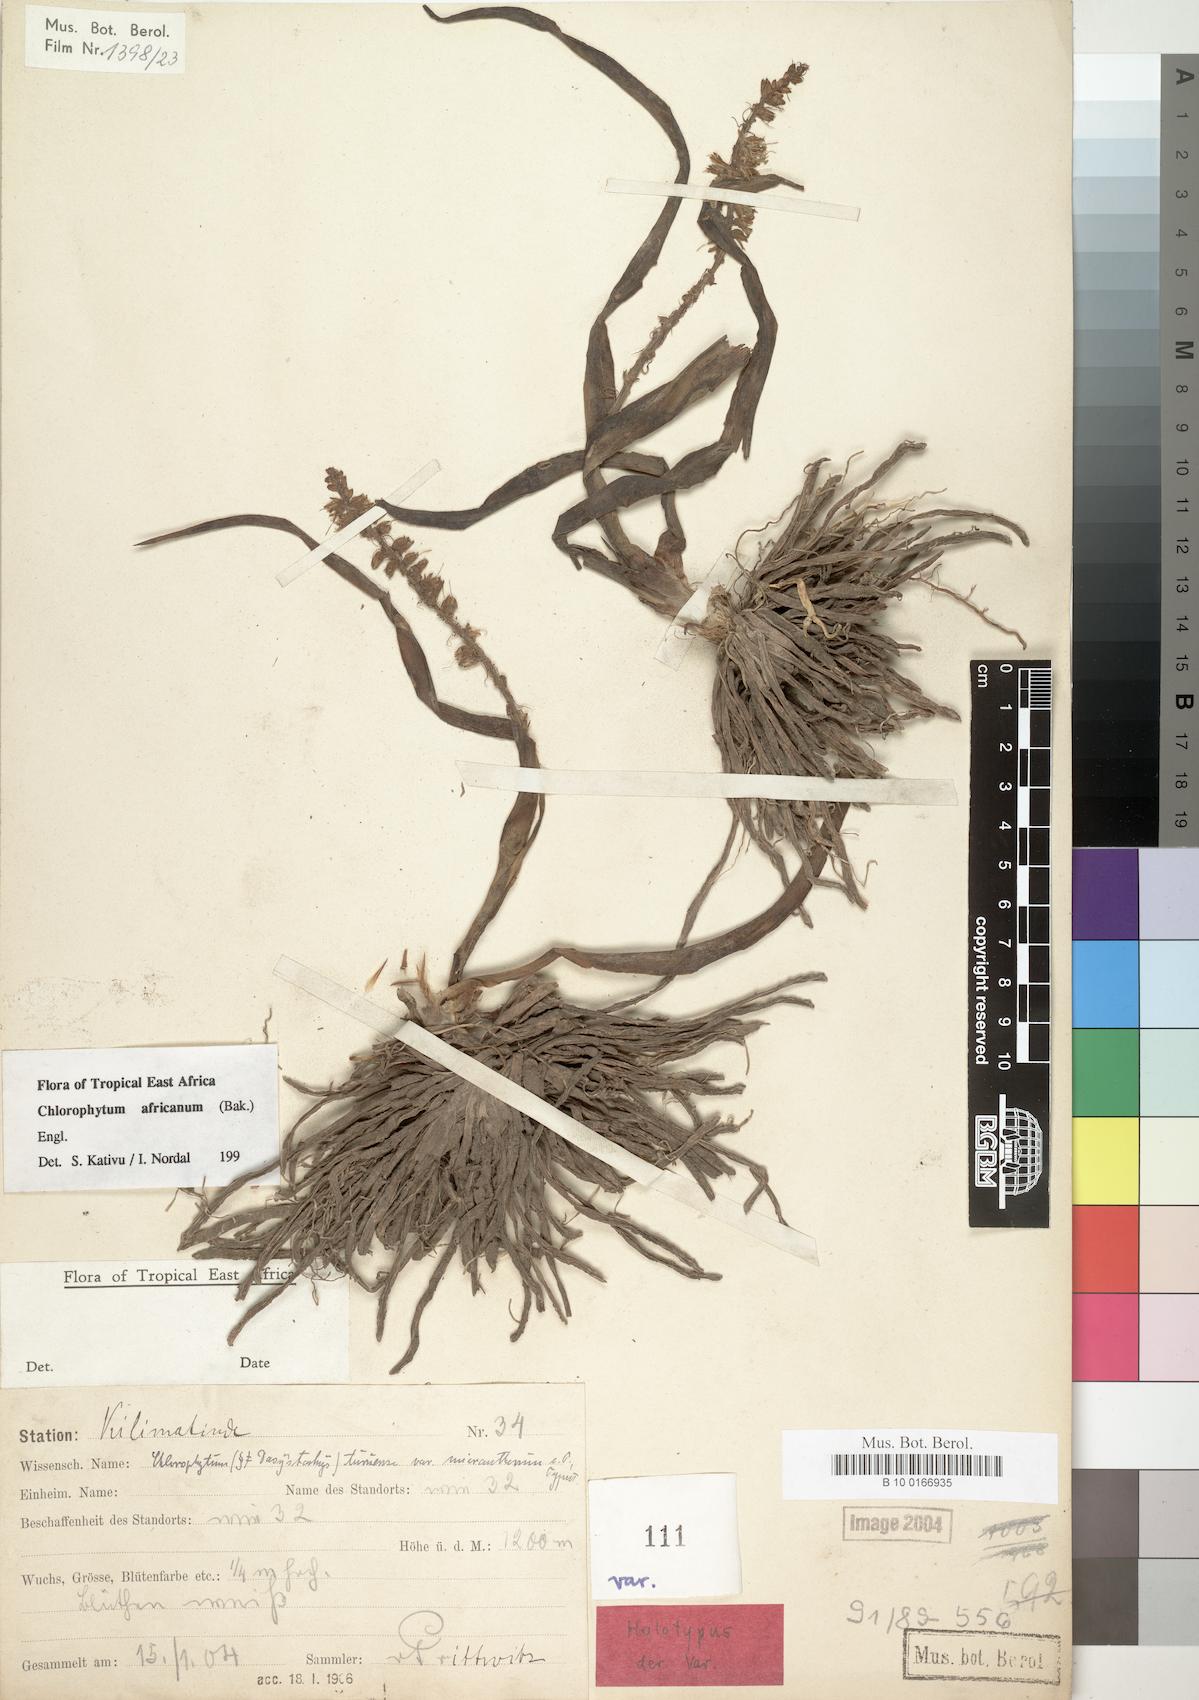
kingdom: Plantae
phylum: Tracheophyta
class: Liliopsida
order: Asparagales
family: Asparagaceae
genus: Chlorophytum
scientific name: Chlorophytum africanum
